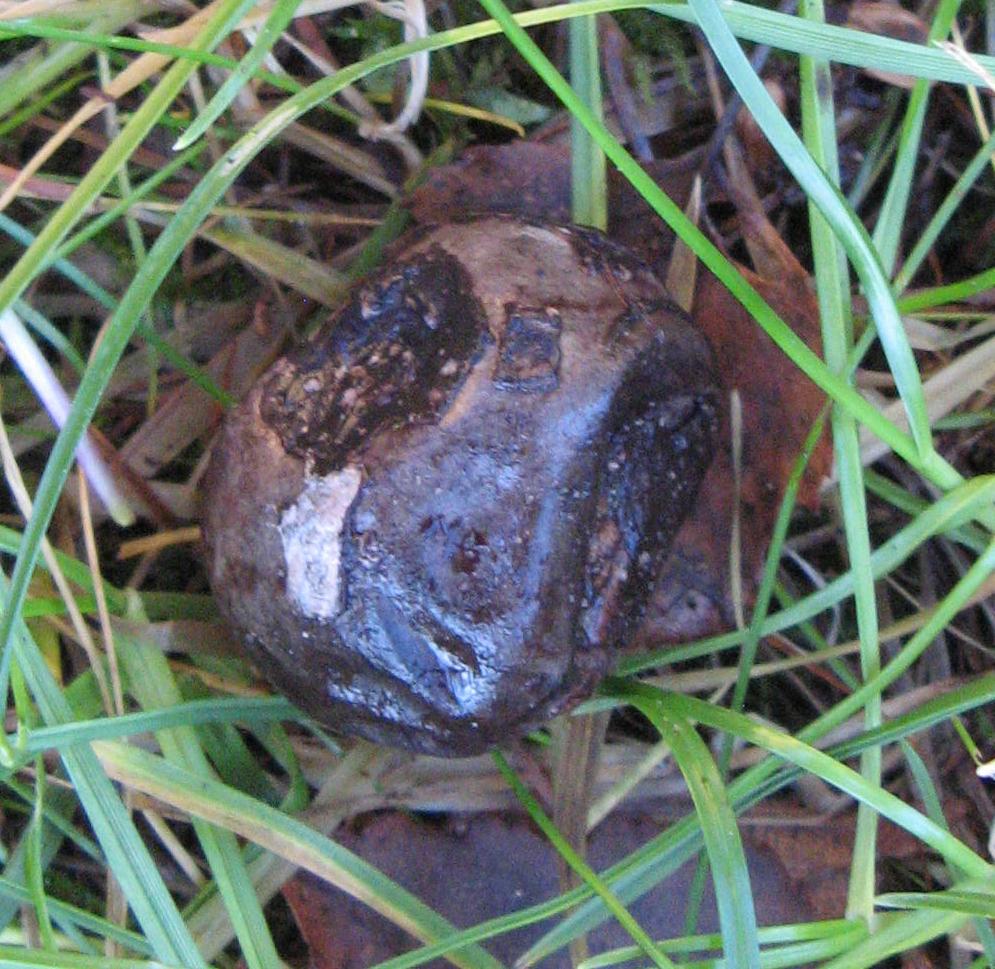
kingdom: Fungi
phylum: Basidiomycota
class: Agaricomycetes
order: Agaricales
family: Lycoperdaceae
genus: Bovista
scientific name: Bovista plumbea
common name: blygrå bovist
